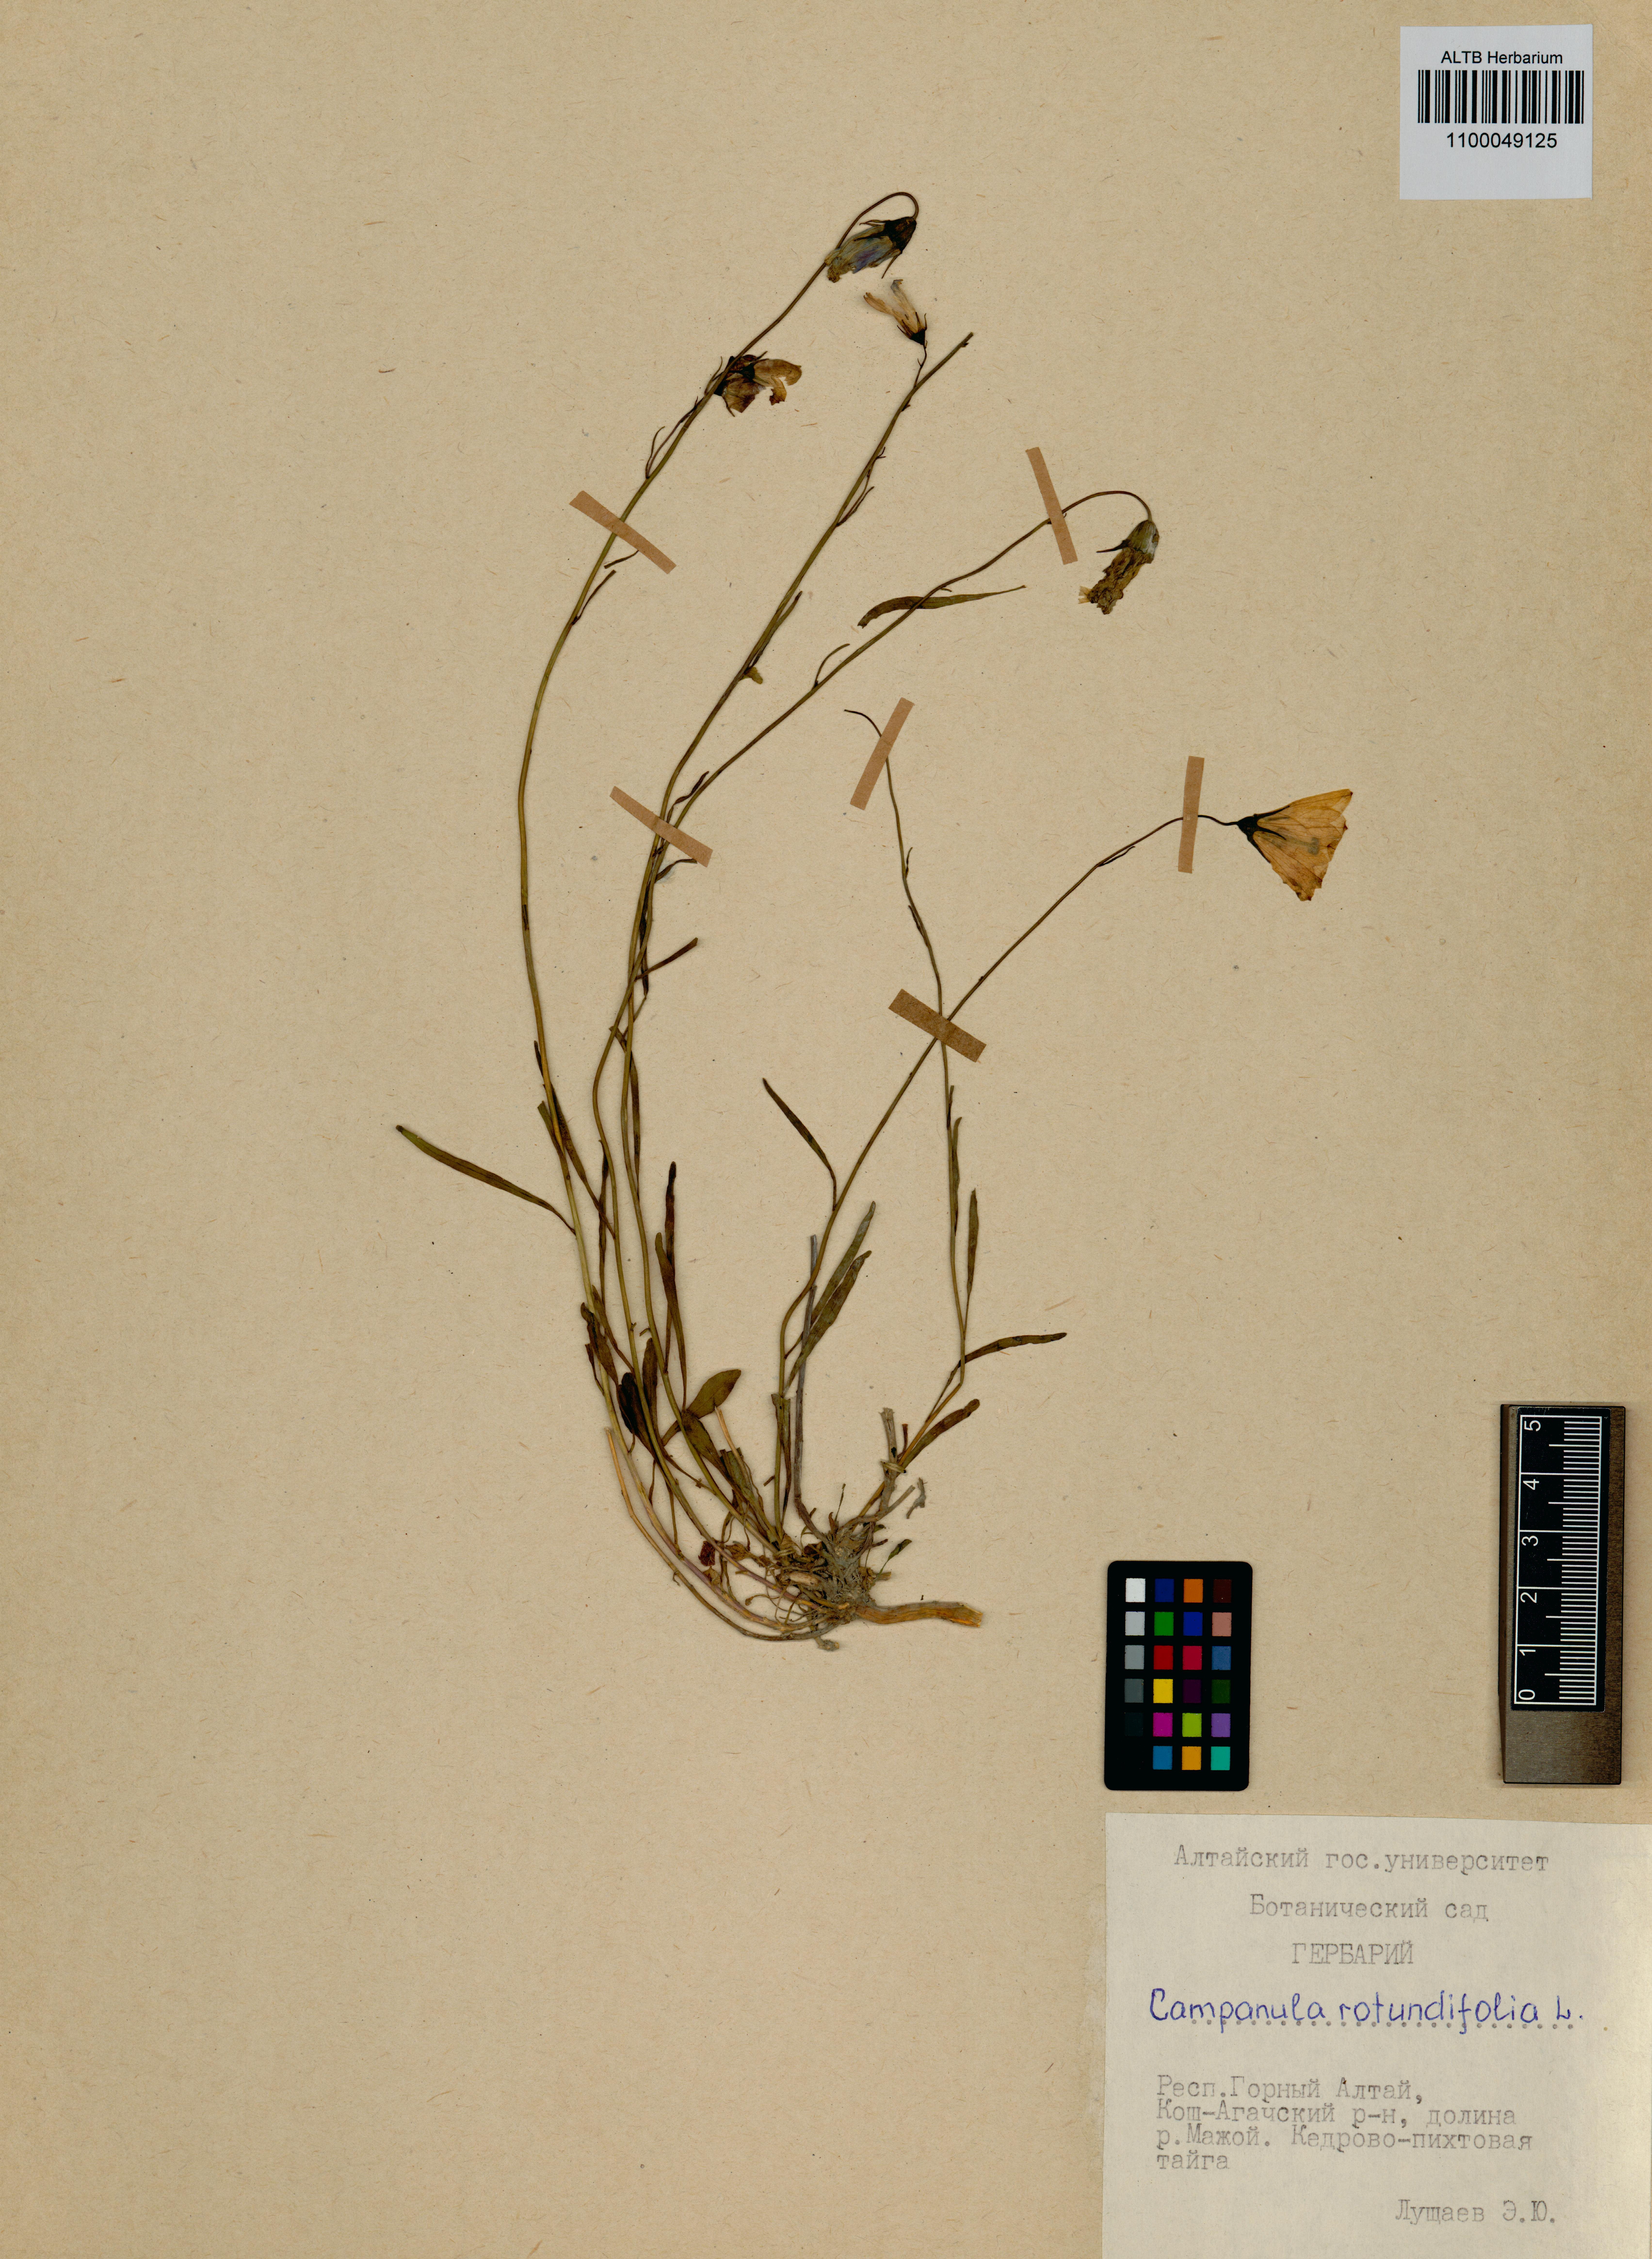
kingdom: Plantae
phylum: Tracheophyta
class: Magnoliopsida
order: Asterales
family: Campanulaceae
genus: Campanula
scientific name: Campanula rotundifolia
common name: Harebell
